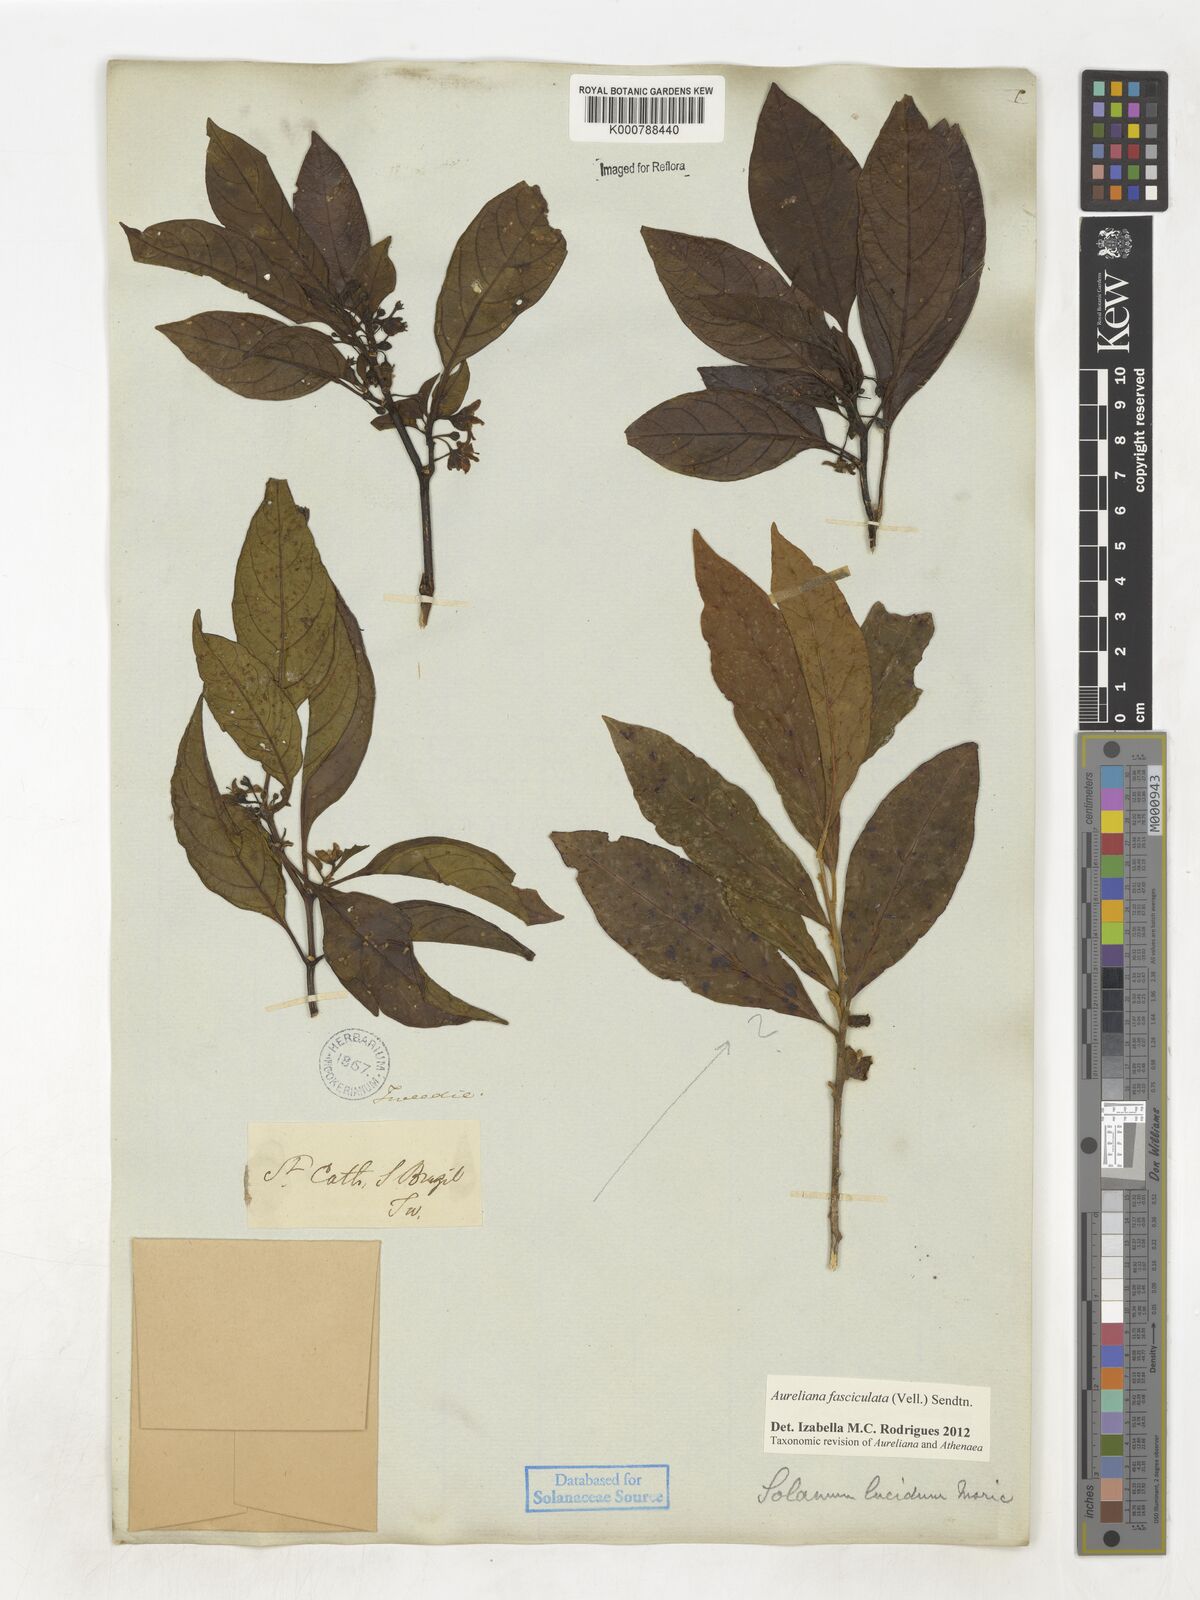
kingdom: Plantae
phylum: Tracheophyta
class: Magnoliopsida
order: Solanales
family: Solanaceae
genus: Athenaea
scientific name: Athenaea fasciculata
